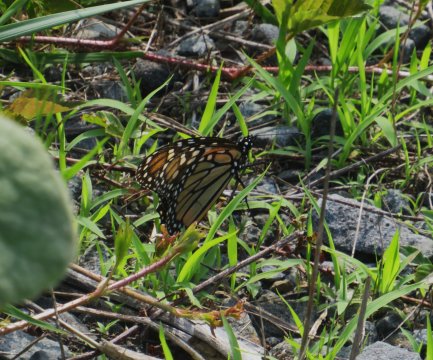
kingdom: Animalia
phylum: Arthropoda
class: Insecta
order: Lepidoptera
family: Nymphalidae
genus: Danaus
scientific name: Danaus plexippus
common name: Monarch
